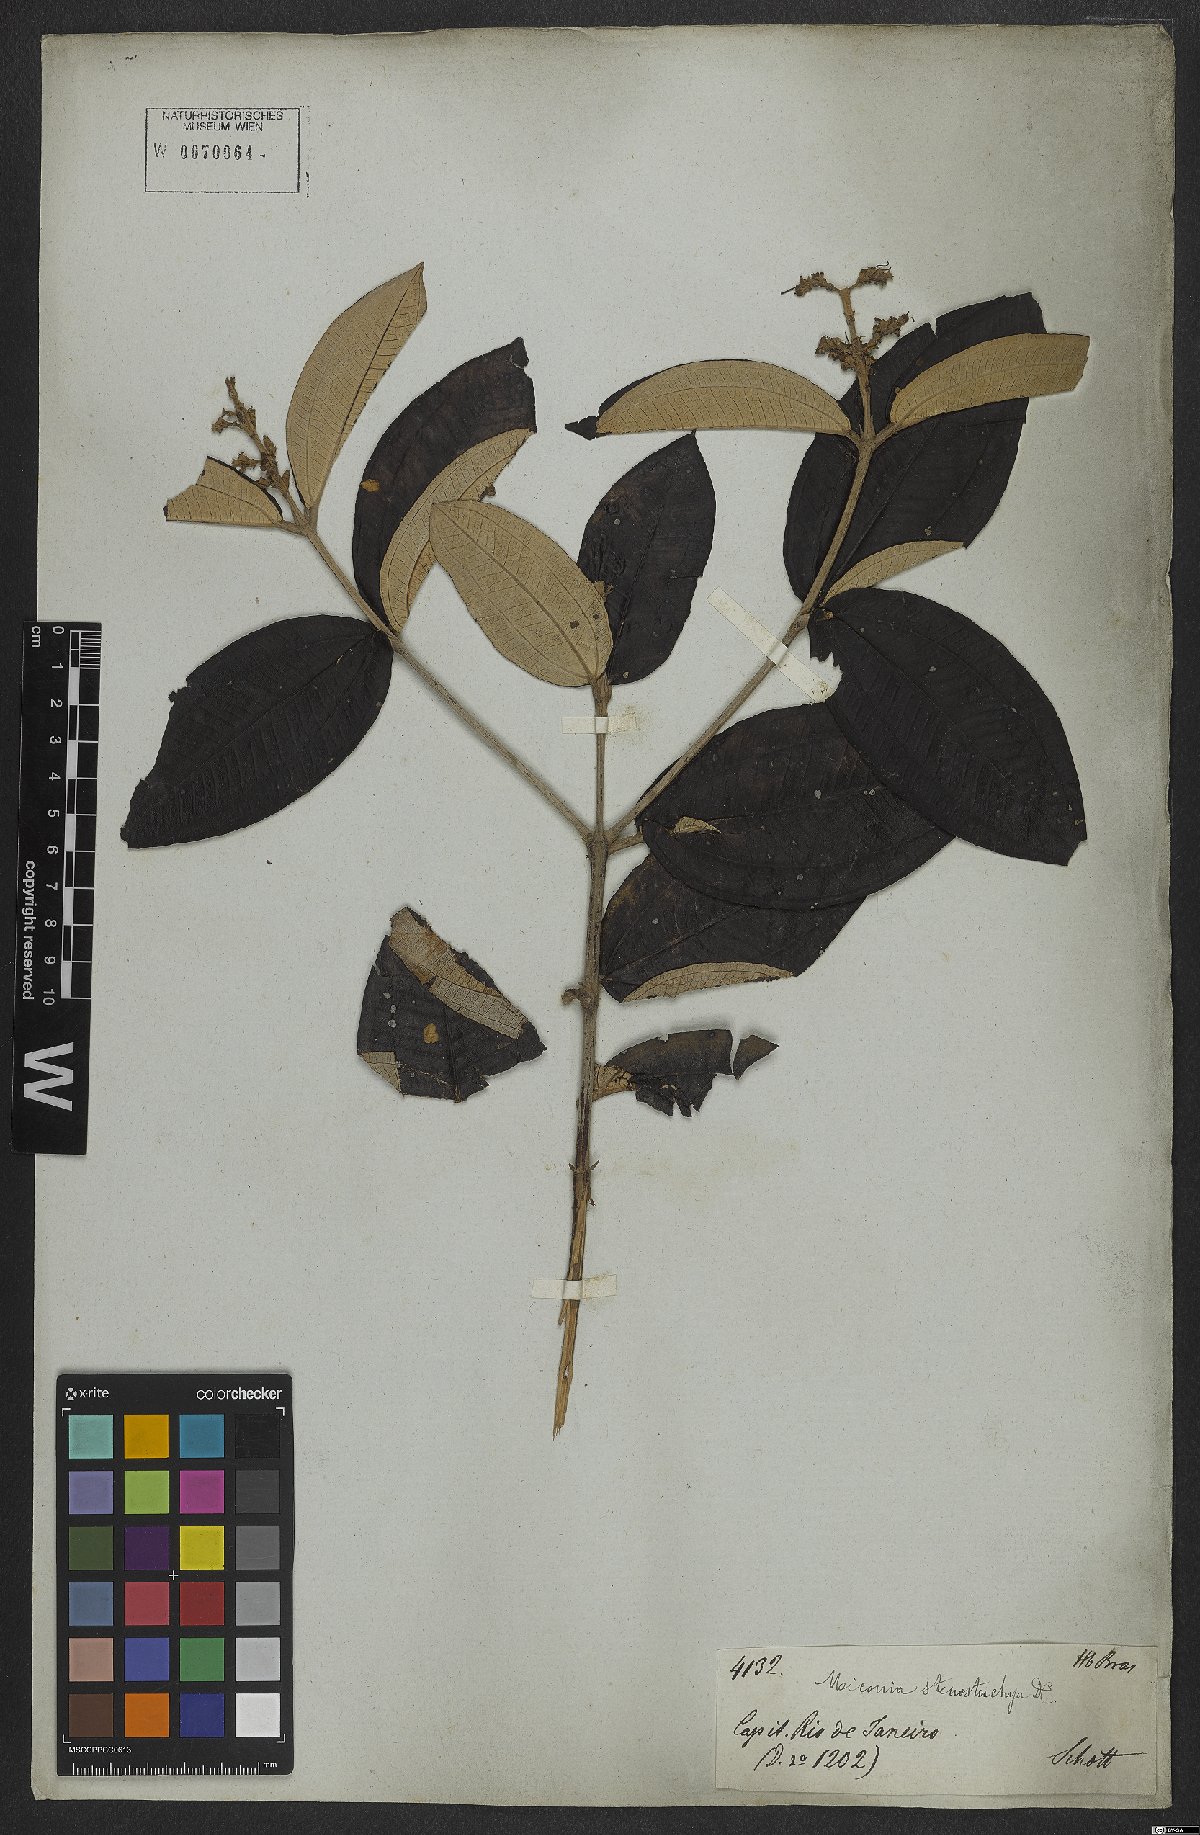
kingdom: Plantae
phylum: Tracheophyta
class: Magnoliopsida
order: Myrtales
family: Melastomataceae
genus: Miconia
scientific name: Miconia stenostachya
